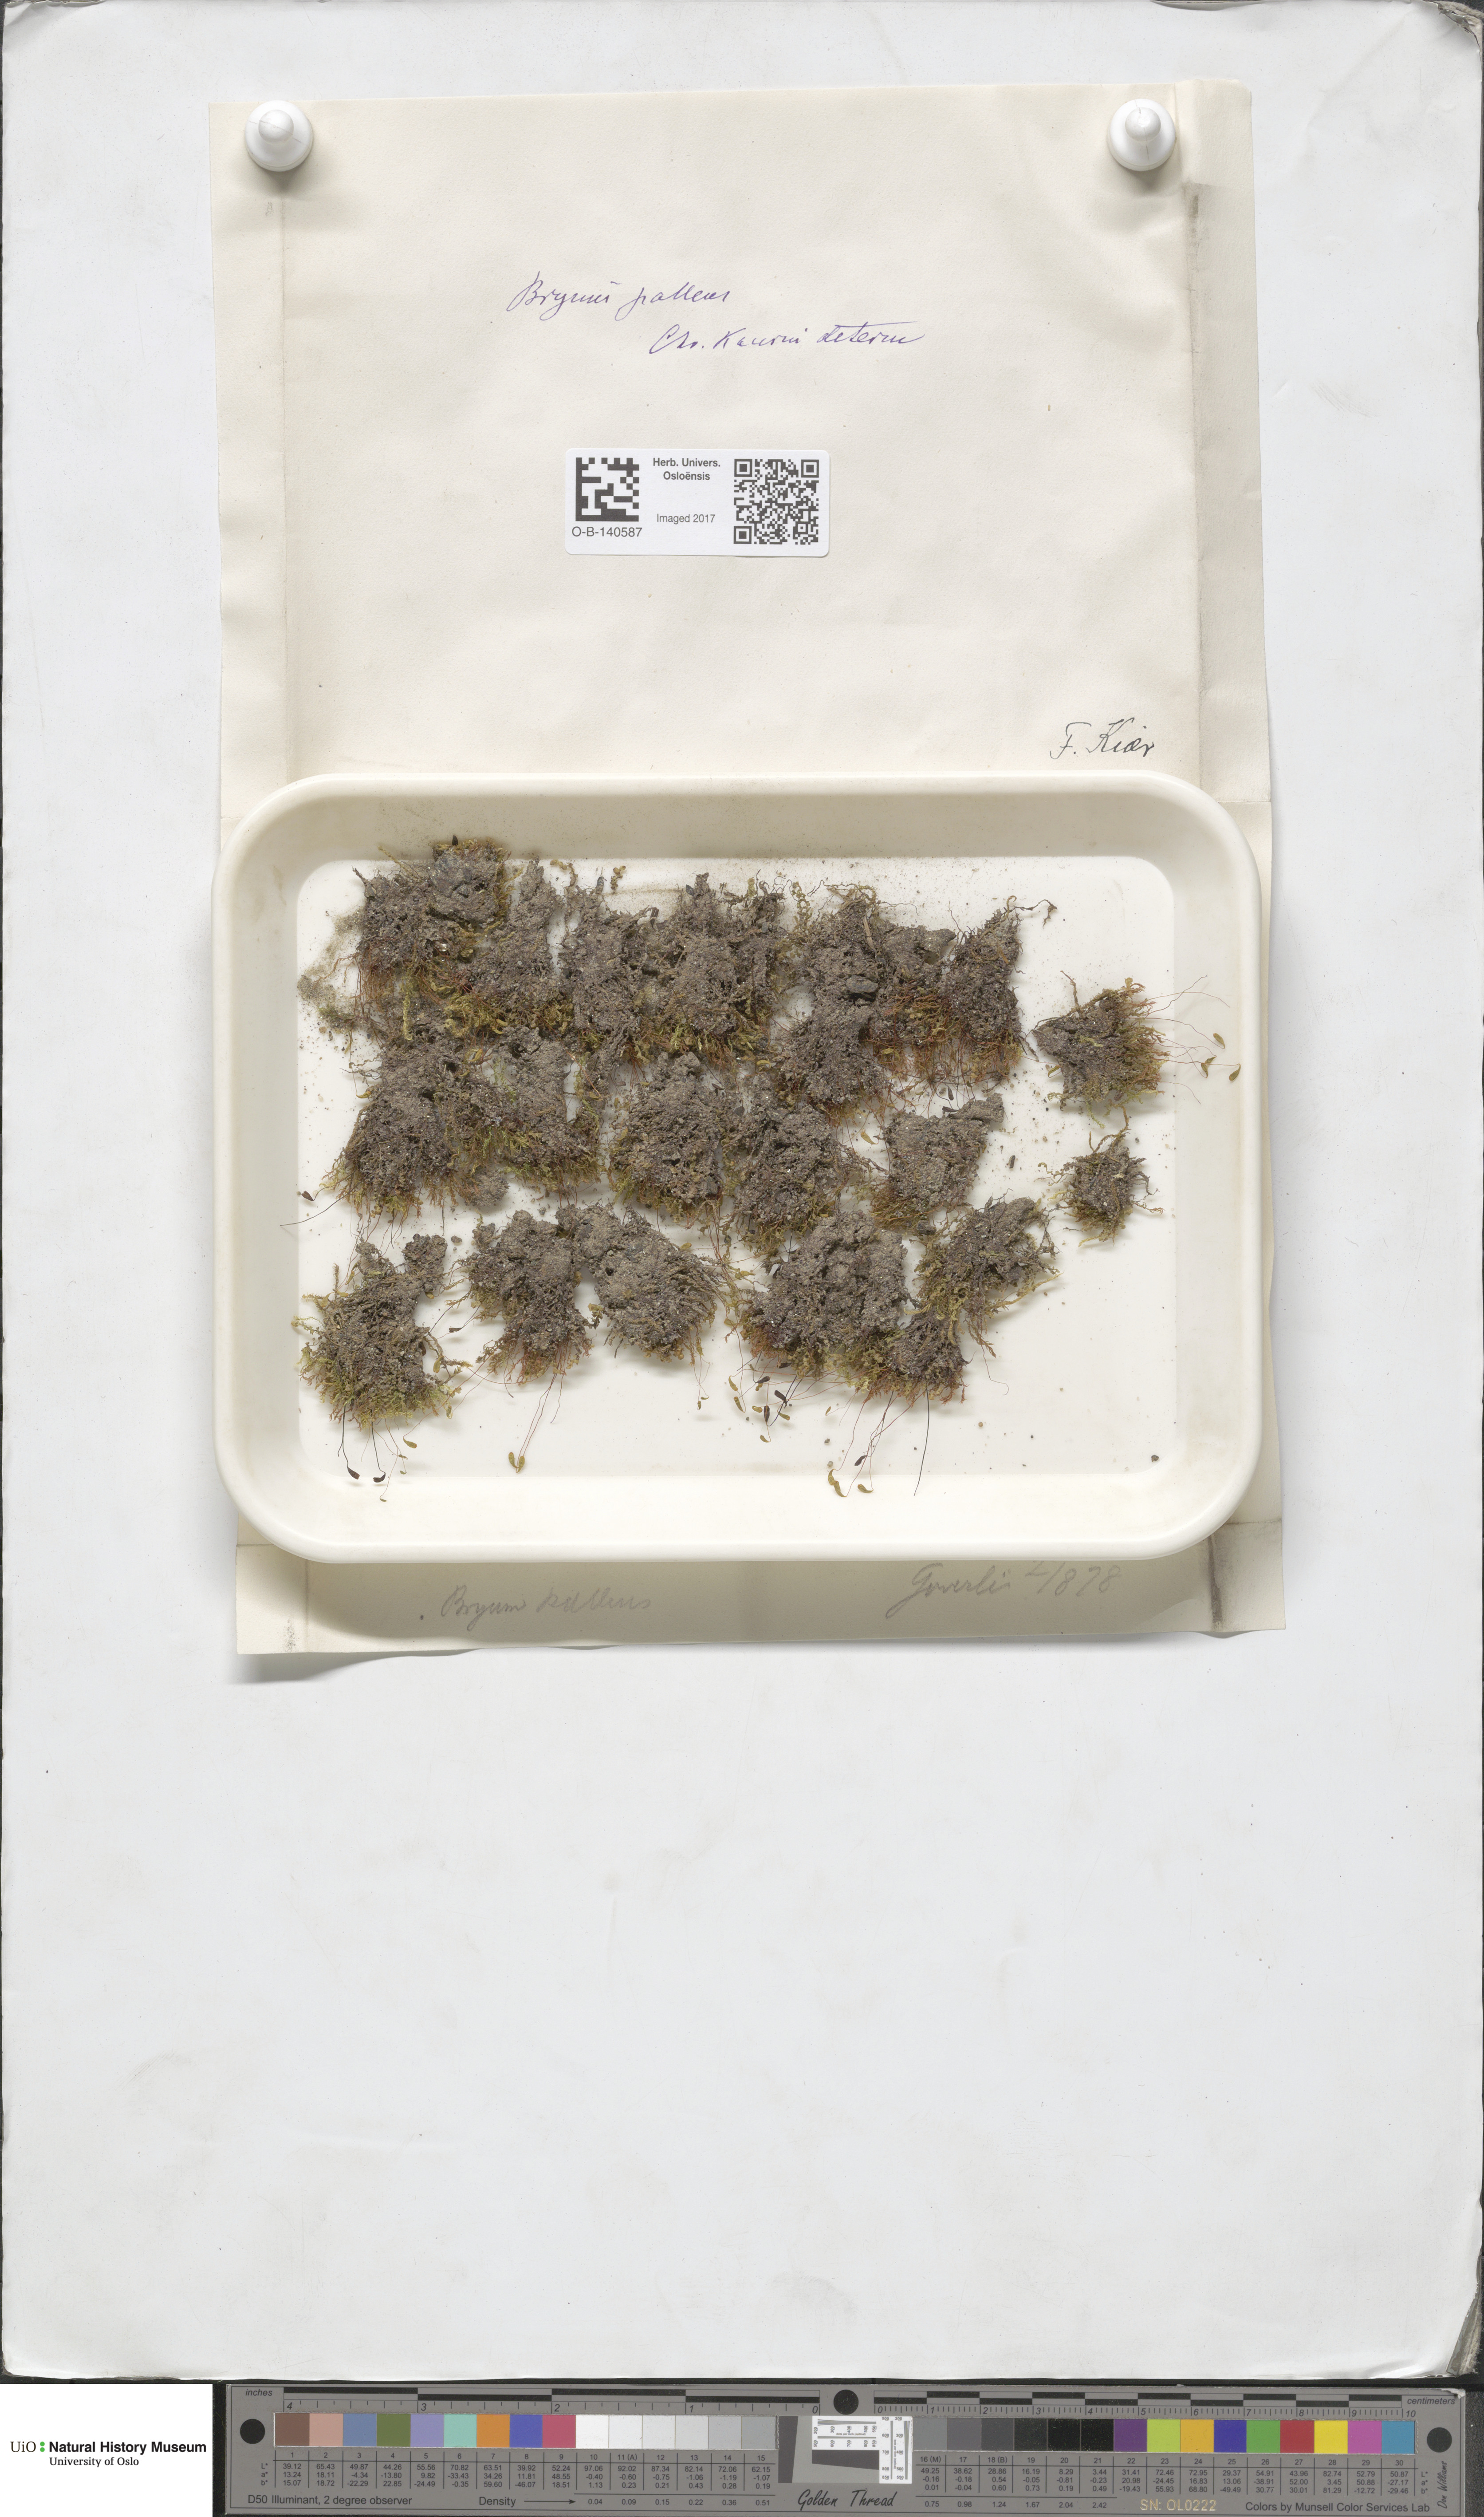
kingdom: Plantae
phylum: Bryophyta
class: Bryopsida
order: Bryales
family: Bryaceae
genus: Ptychostomum
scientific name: Ptychostomum pallens
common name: Pale thread-moss
